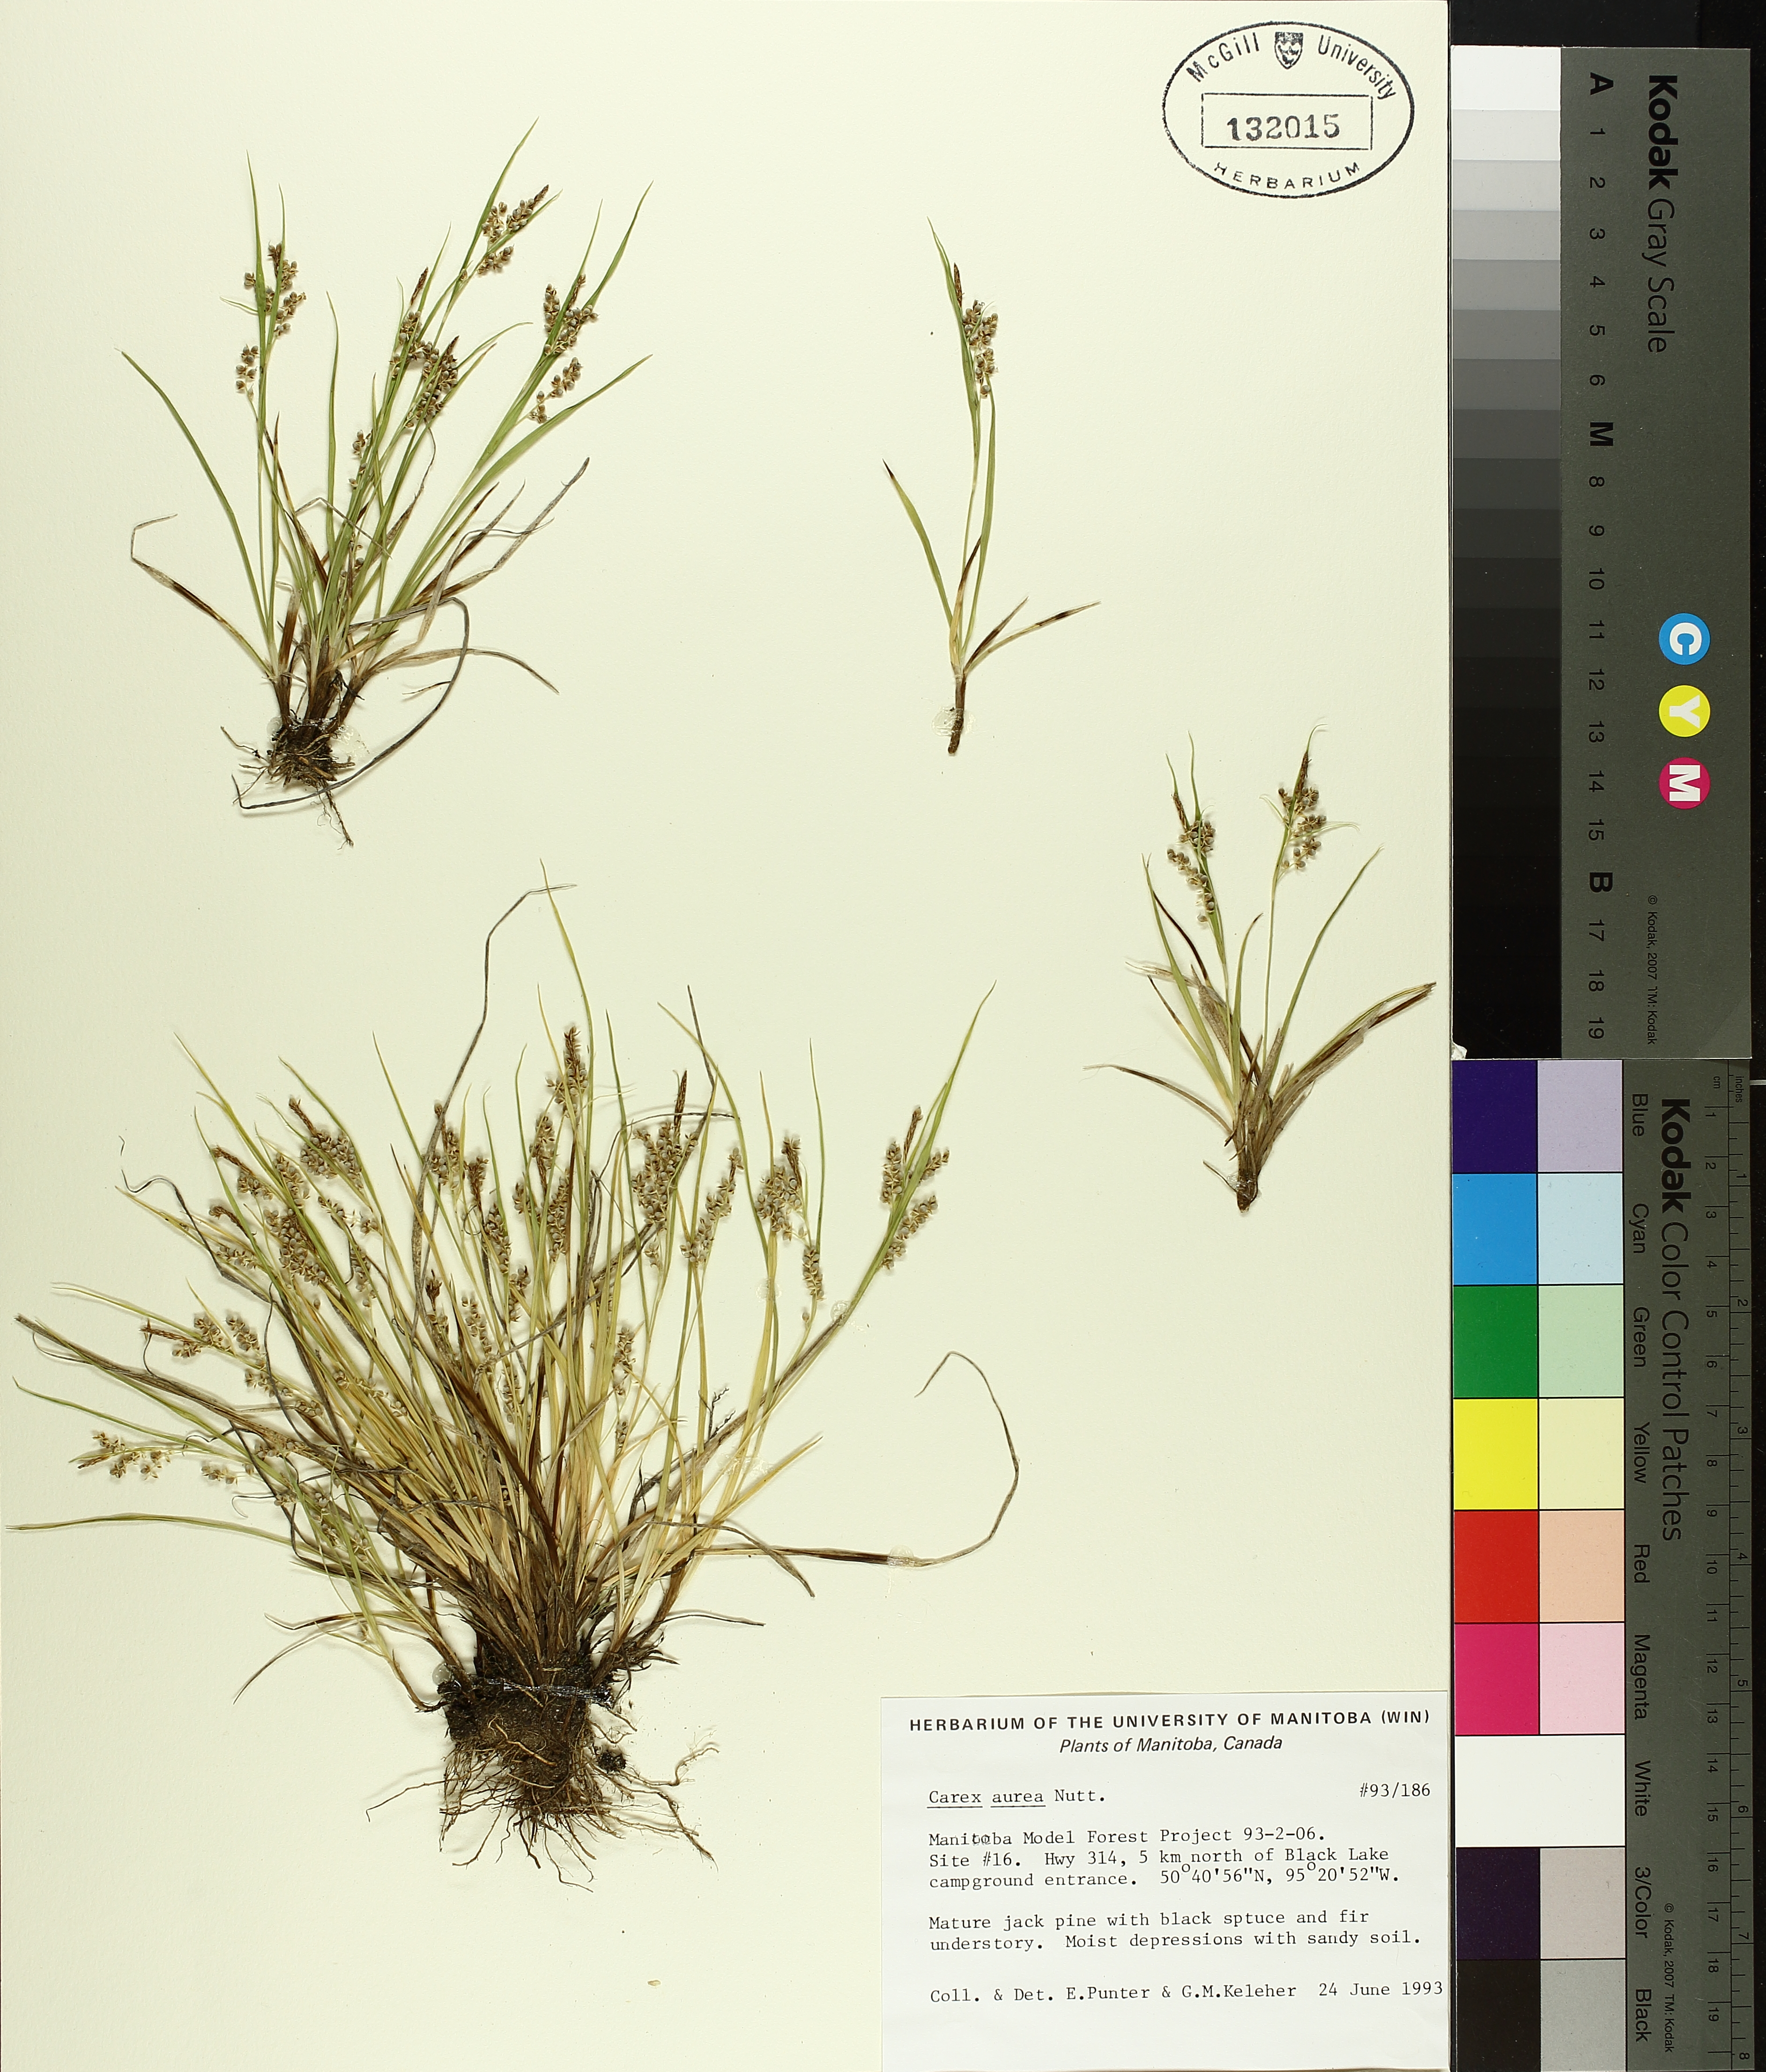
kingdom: Plantae
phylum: Tracheophyta
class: Liliopsida
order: Poales
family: Cyperaceae
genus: Carex
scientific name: Carex aurea
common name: Golden sedge
